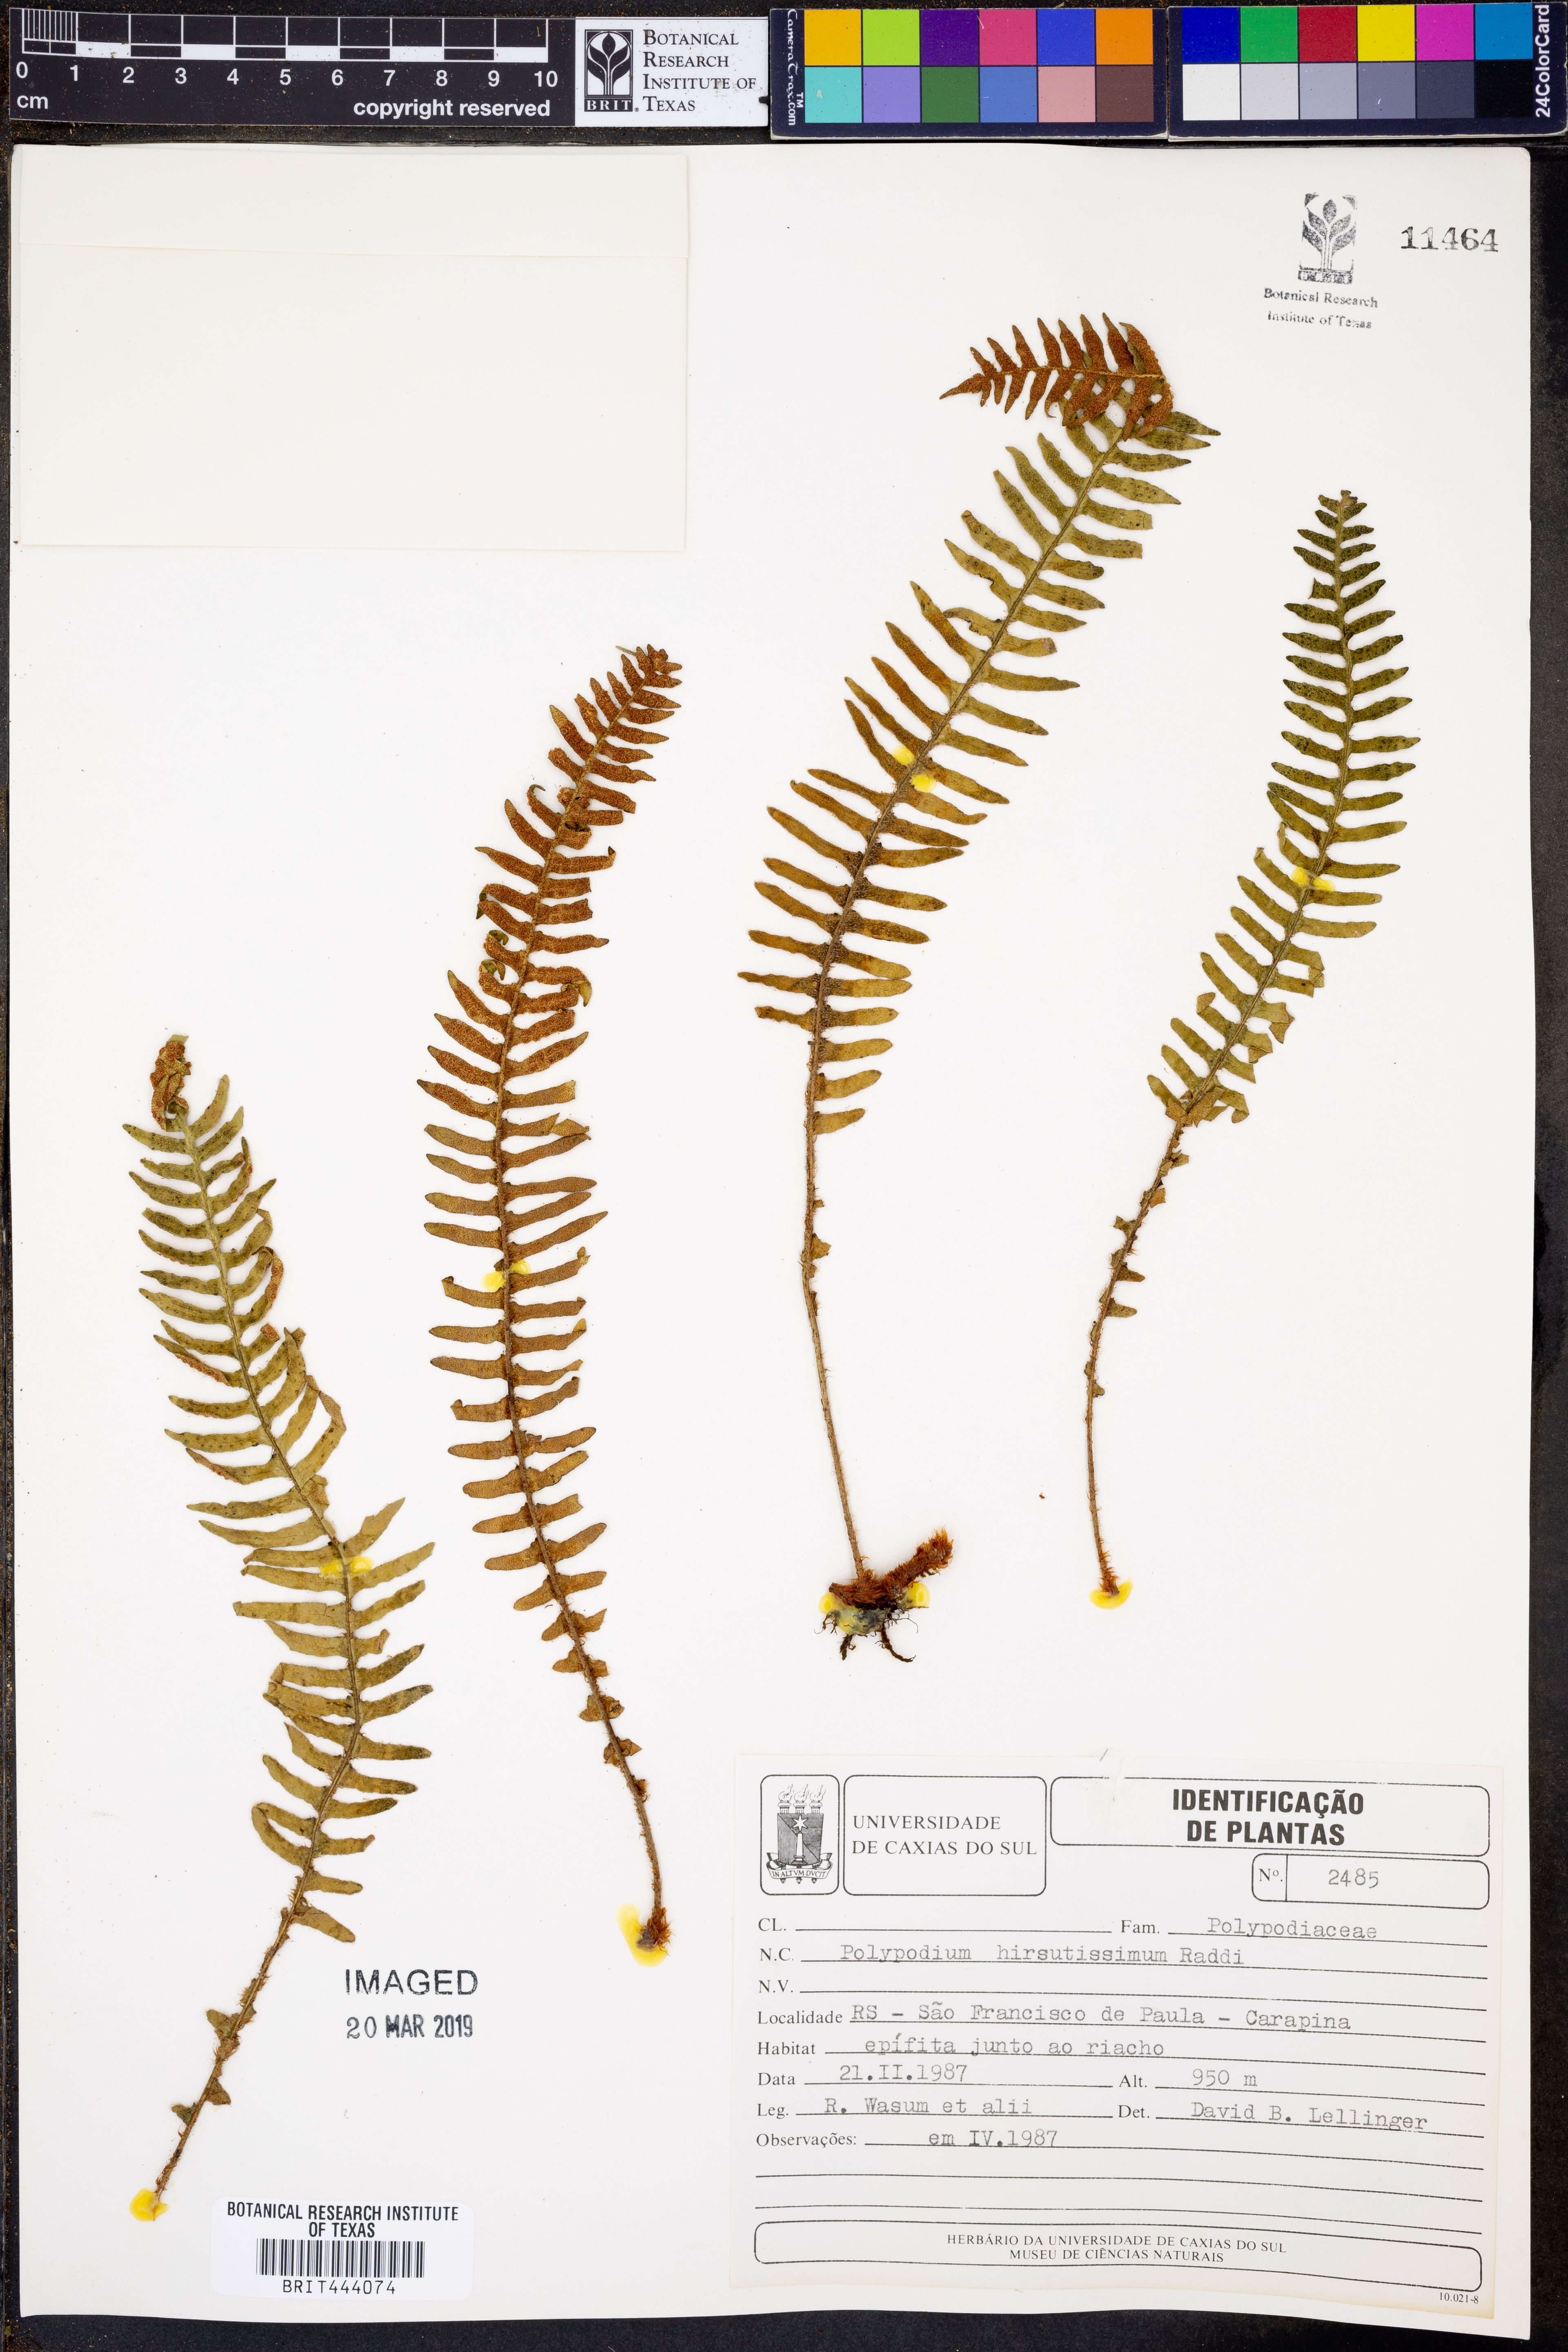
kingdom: Plantae
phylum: Tracheophyta
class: Polypodiopsida
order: Polypodiales
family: Polypodiaceae
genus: Pleopeltis
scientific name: Pleopeltis hirsutissima
